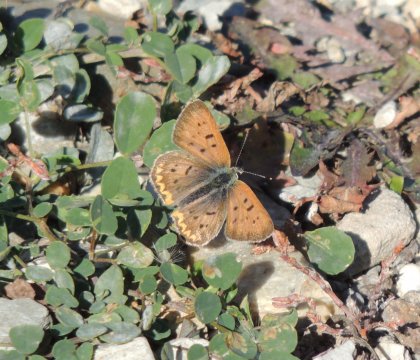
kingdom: Animalia
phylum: Arthropoda
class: Insecta
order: Lepidoptera
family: Sesiidae
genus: Sesia
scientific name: Sesia Lycaena helloides
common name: Purplish Copper
